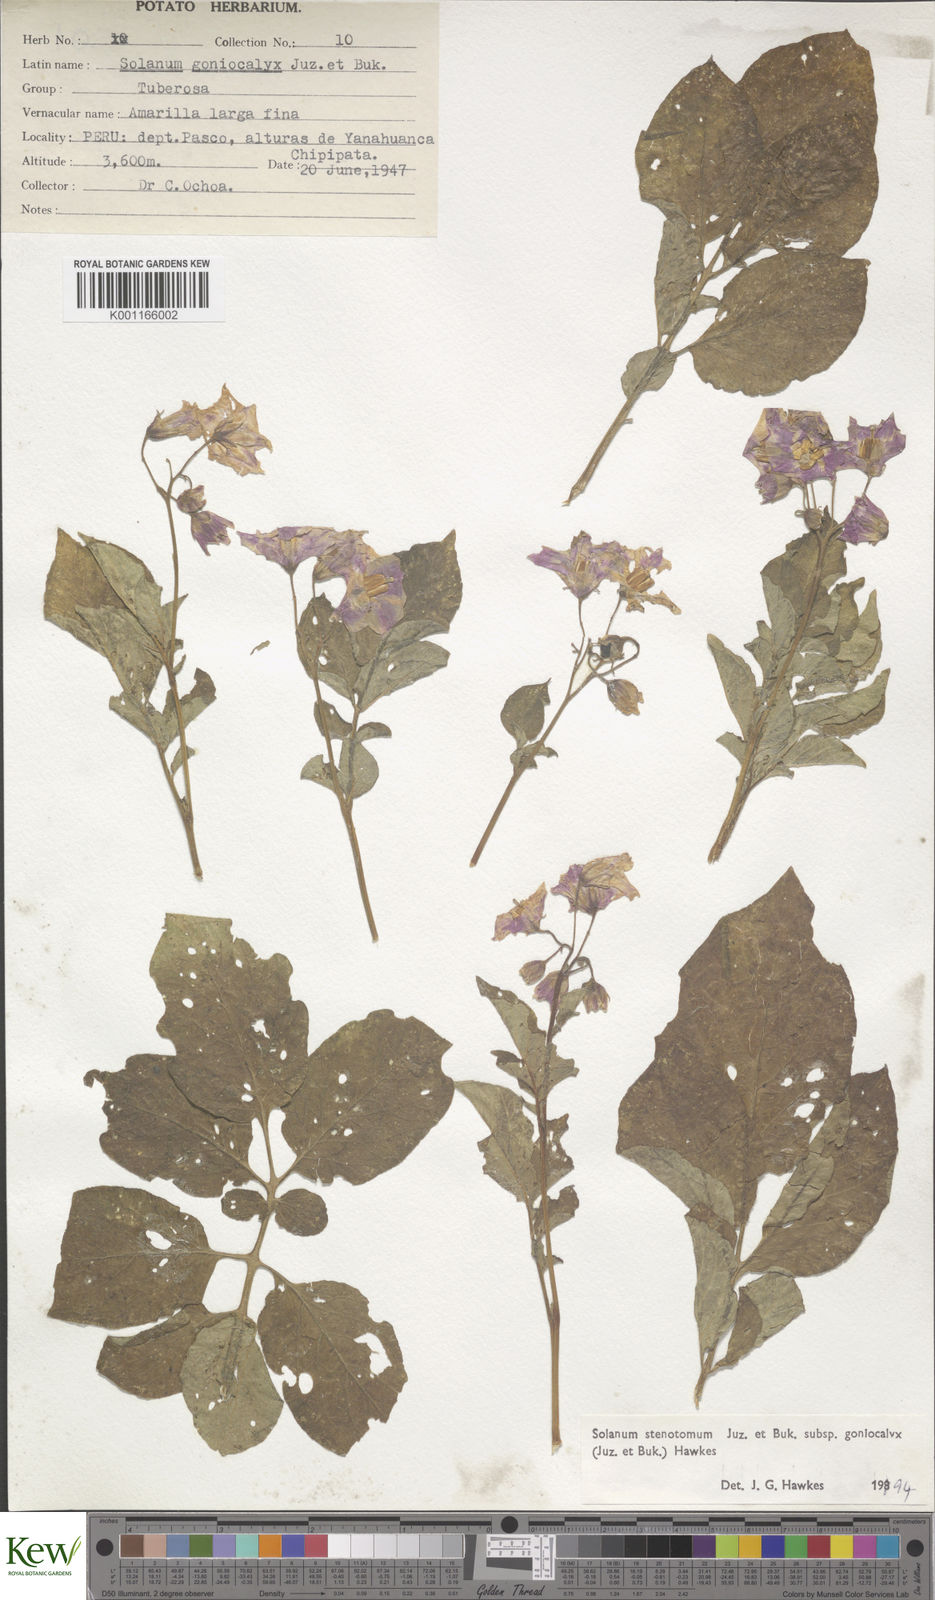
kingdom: Plantae
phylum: Tracheophyta
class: Magnoliopsida
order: Solanales
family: Solanaceae
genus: Solanum
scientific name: Solanum tuberosum
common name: Potato
